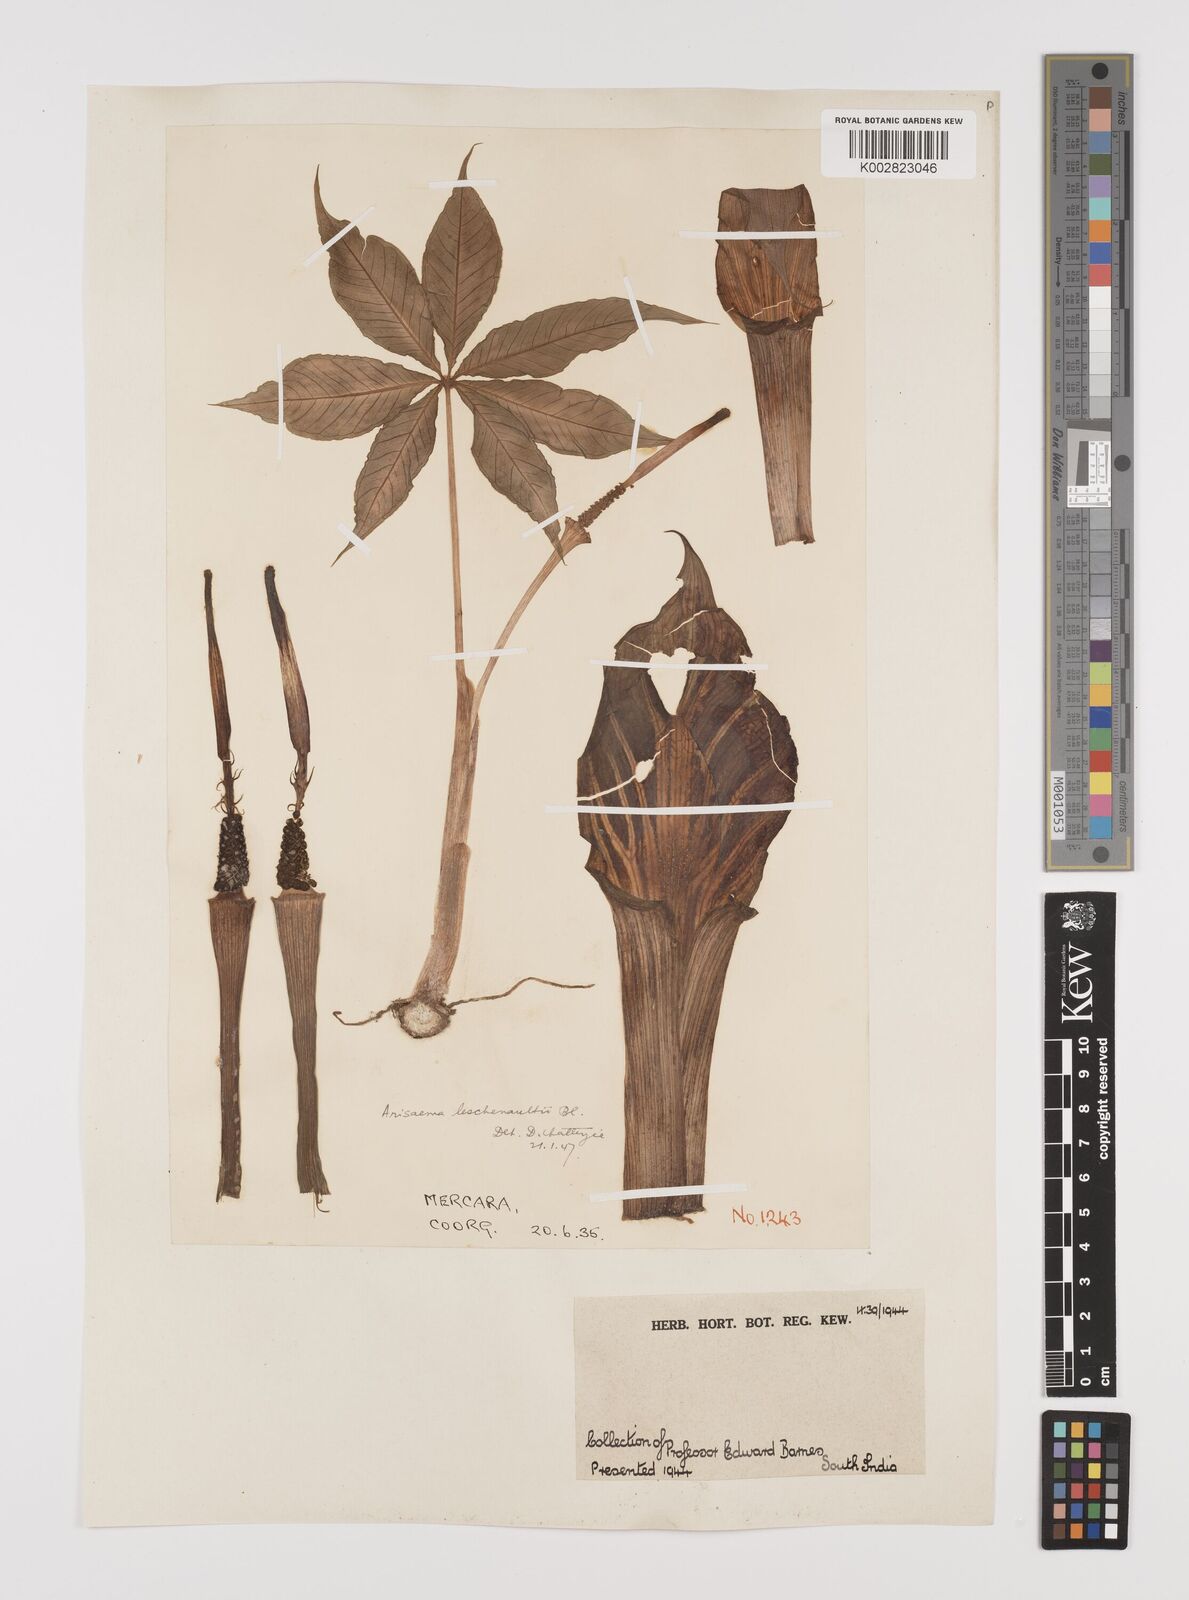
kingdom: Plantae
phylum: Tracheophyta
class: Liliopsida
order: Alismatales
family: Araceae
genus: Arisaema
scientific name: Arisaema leschenaultii
